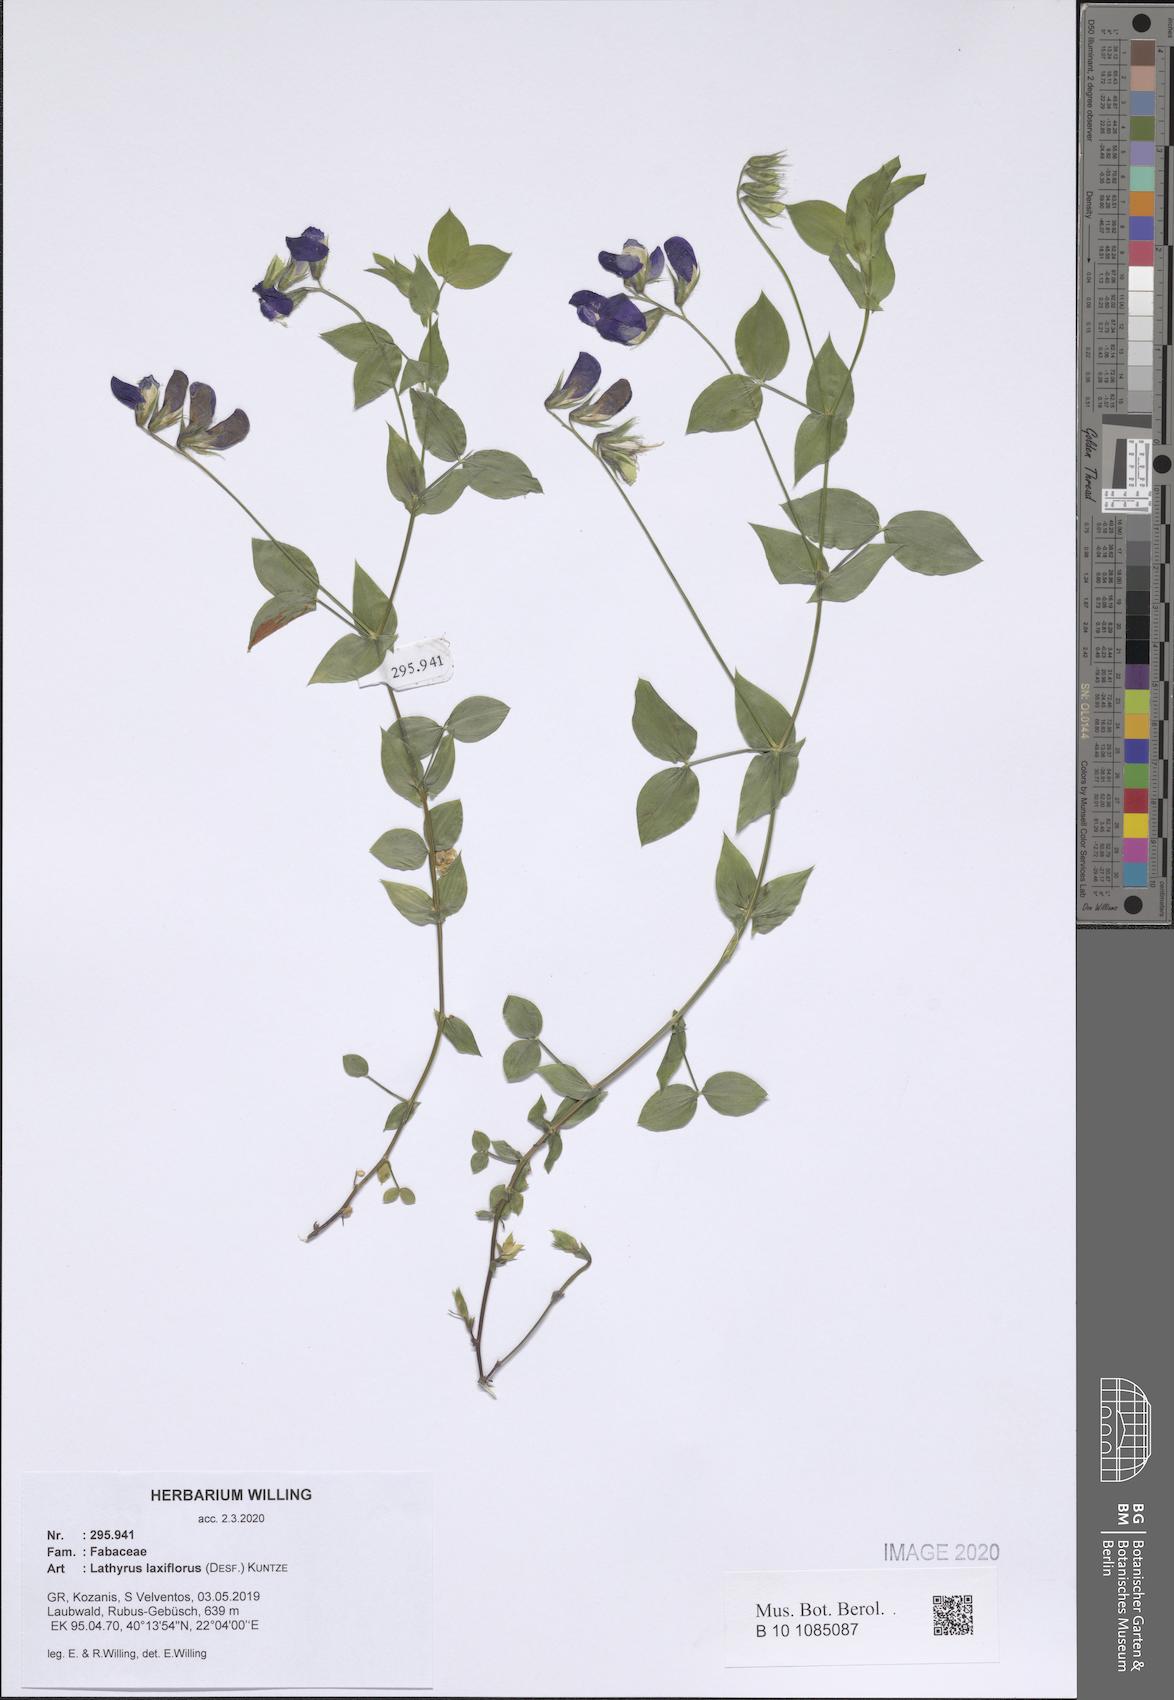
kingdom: Plantae
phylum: Tracheophyta
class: Magnoliopsida
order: Fabales
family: Fabaceae
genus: Lathyrus
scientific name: Lathyrus laxiflorus
